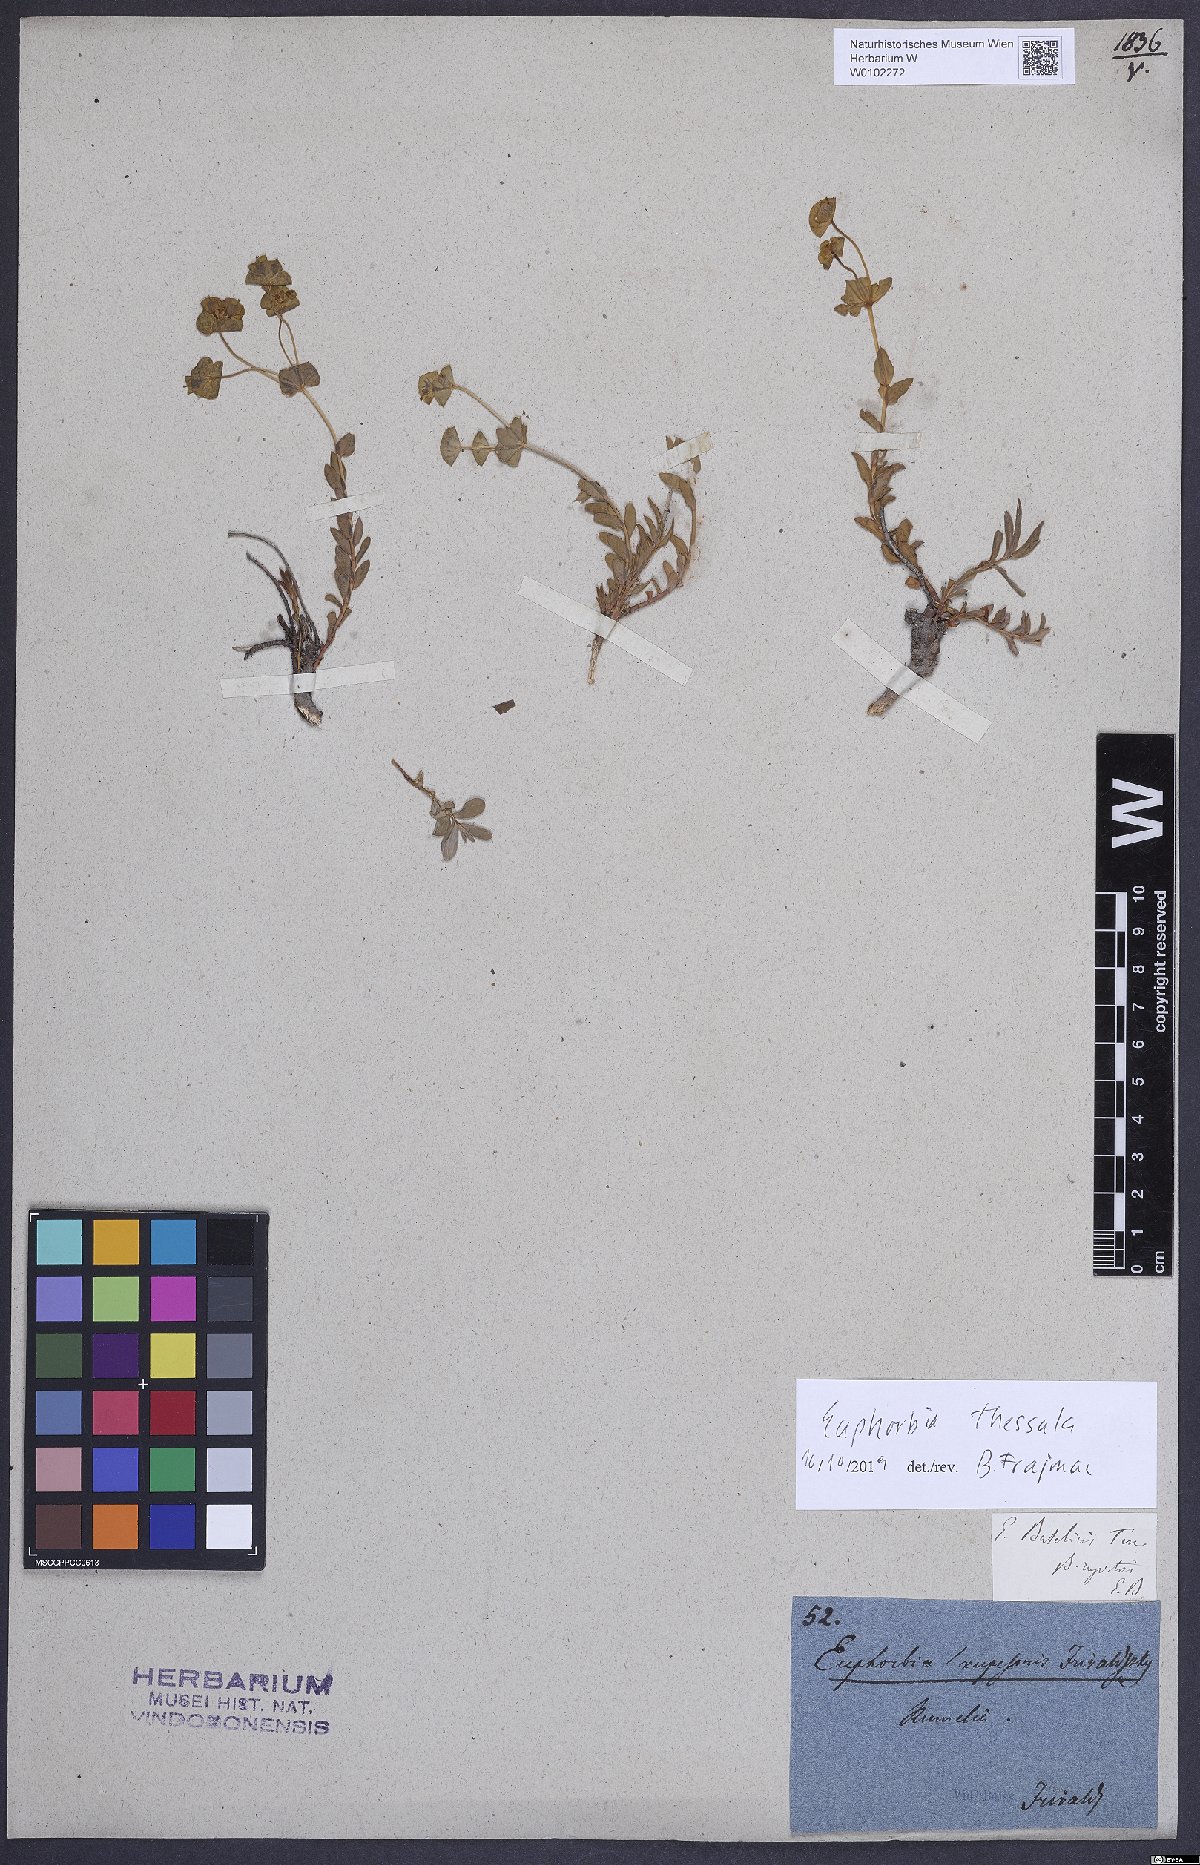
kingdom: Plantae
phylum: Tracheophyta
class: Magnoliopsida
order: Malpighiales
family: Euphorbiaceae
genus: Euphorbia
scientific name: Euphorbia barrelieri
